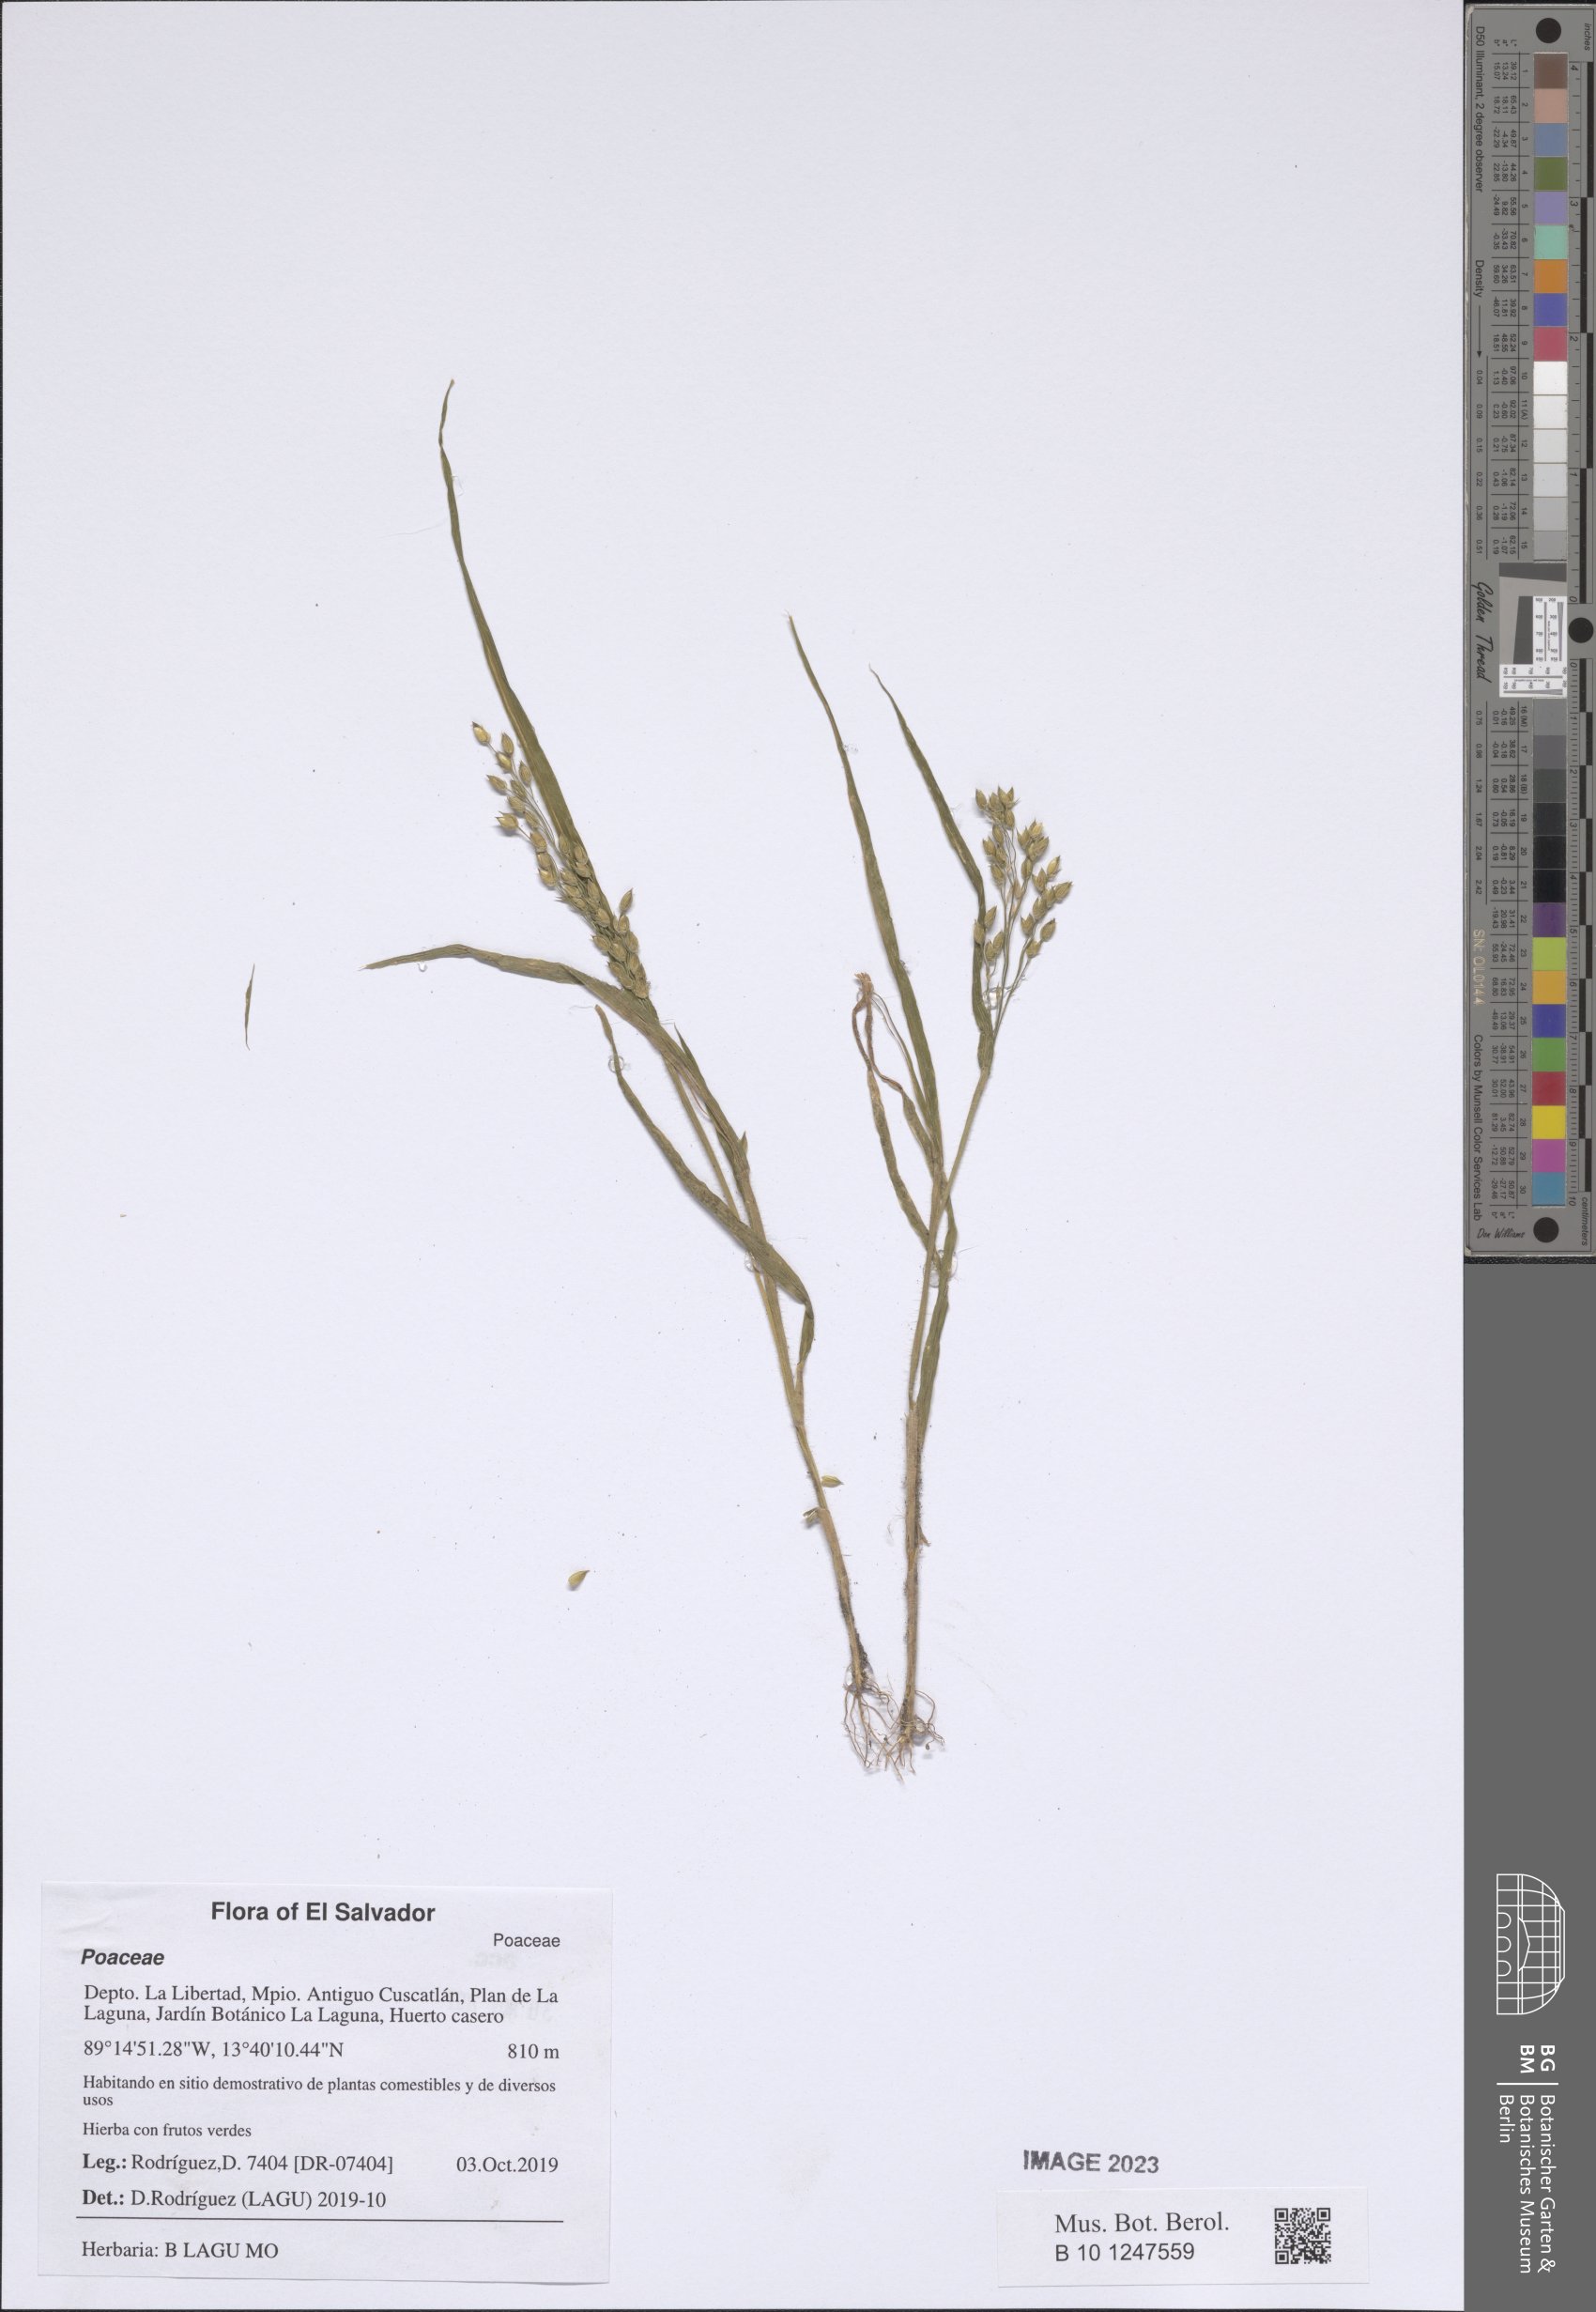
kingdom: Plantae
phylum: Tracheophyta
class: Liliopsida
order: Poales
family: Poaceae
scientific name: Poaceae
